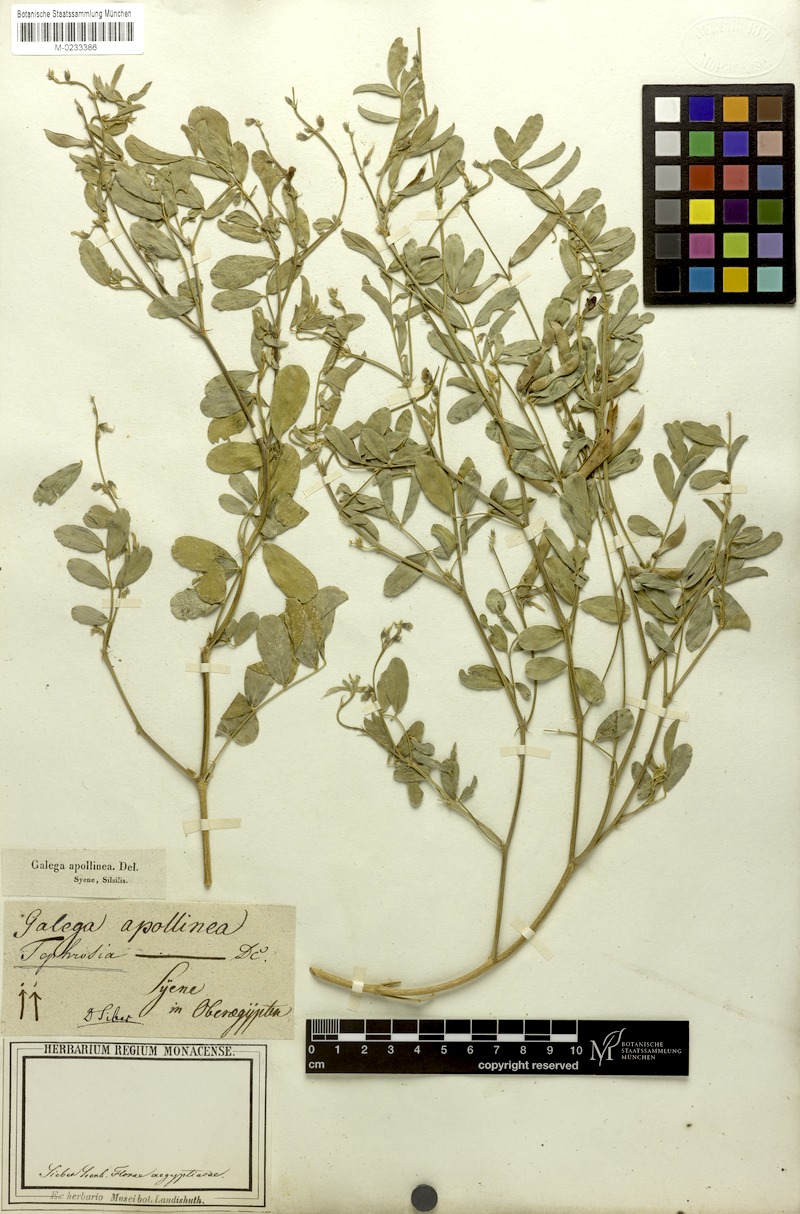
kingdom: Plantae
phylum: Tracheophyta
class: Magnoliopsida
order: Fabales
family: Fabaceae
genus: Tephrosia
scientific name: Tephrosia purpurea
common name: Fishpoison
